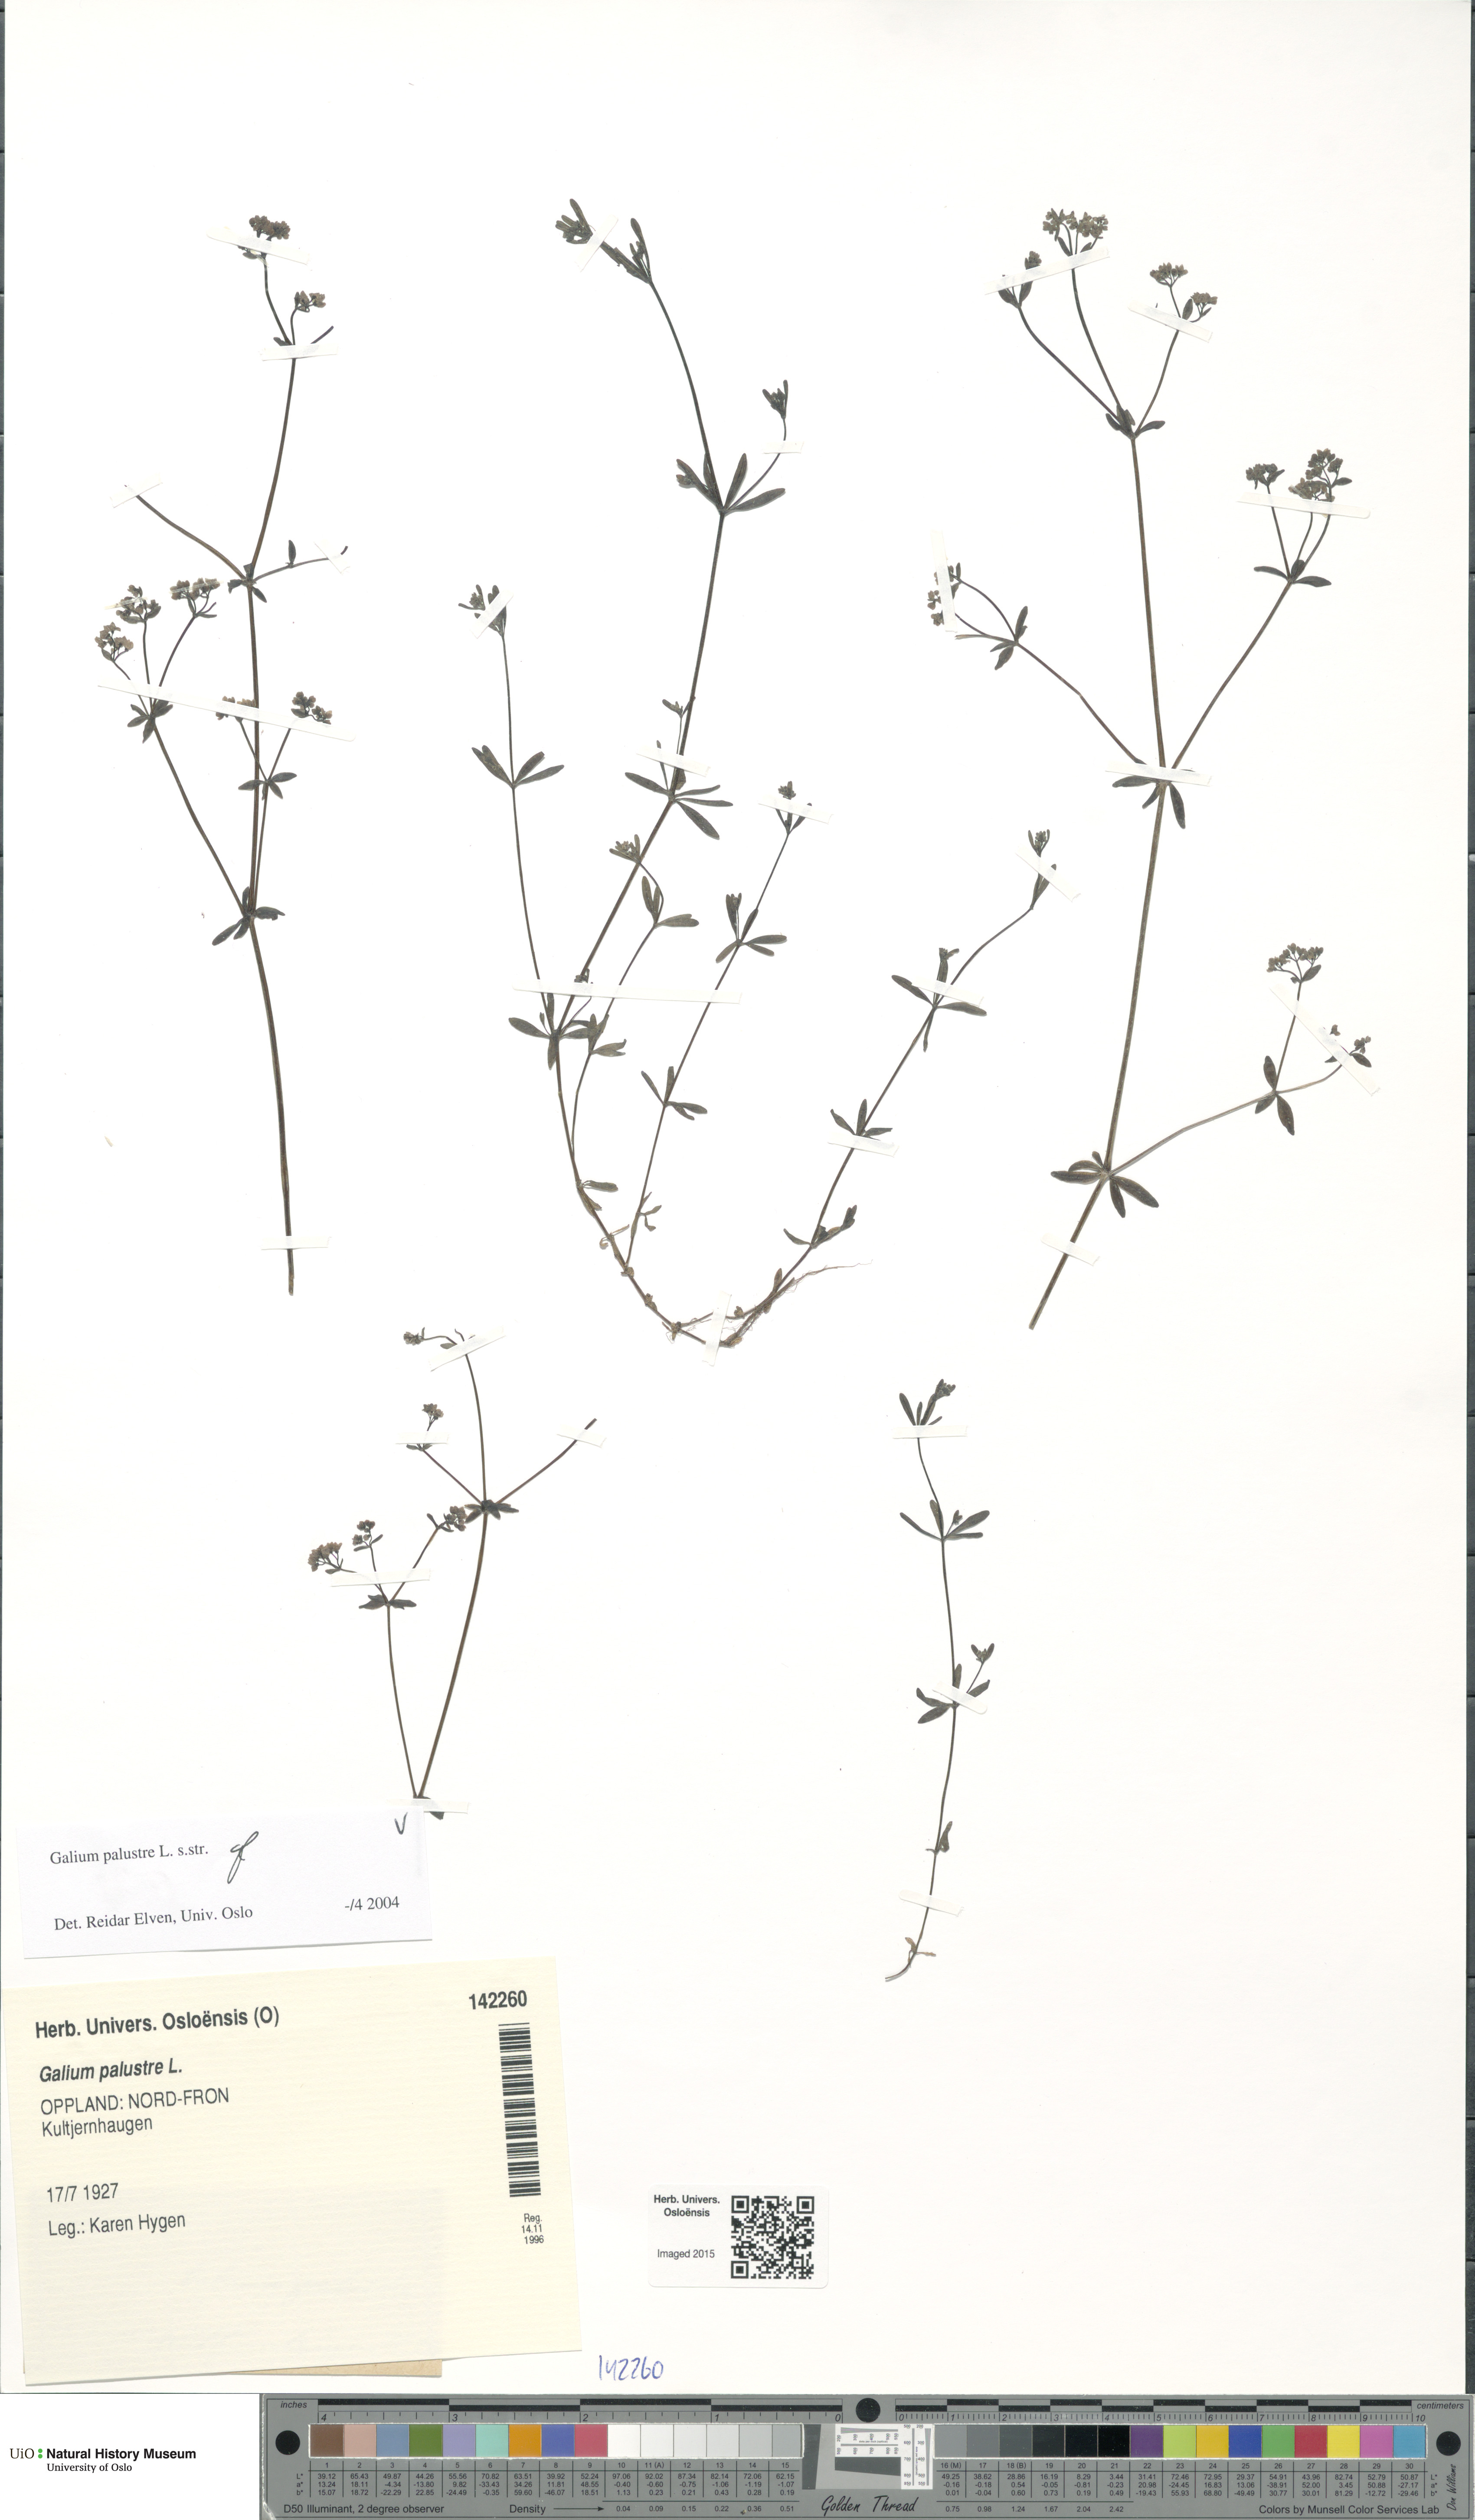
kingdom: Plantae
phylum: Tracheophyta
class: Magnoliopsida
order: Gentianales
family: Rubiaceae
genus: Galium
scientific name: Galium palustre
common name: Common marsh-bedstraw
